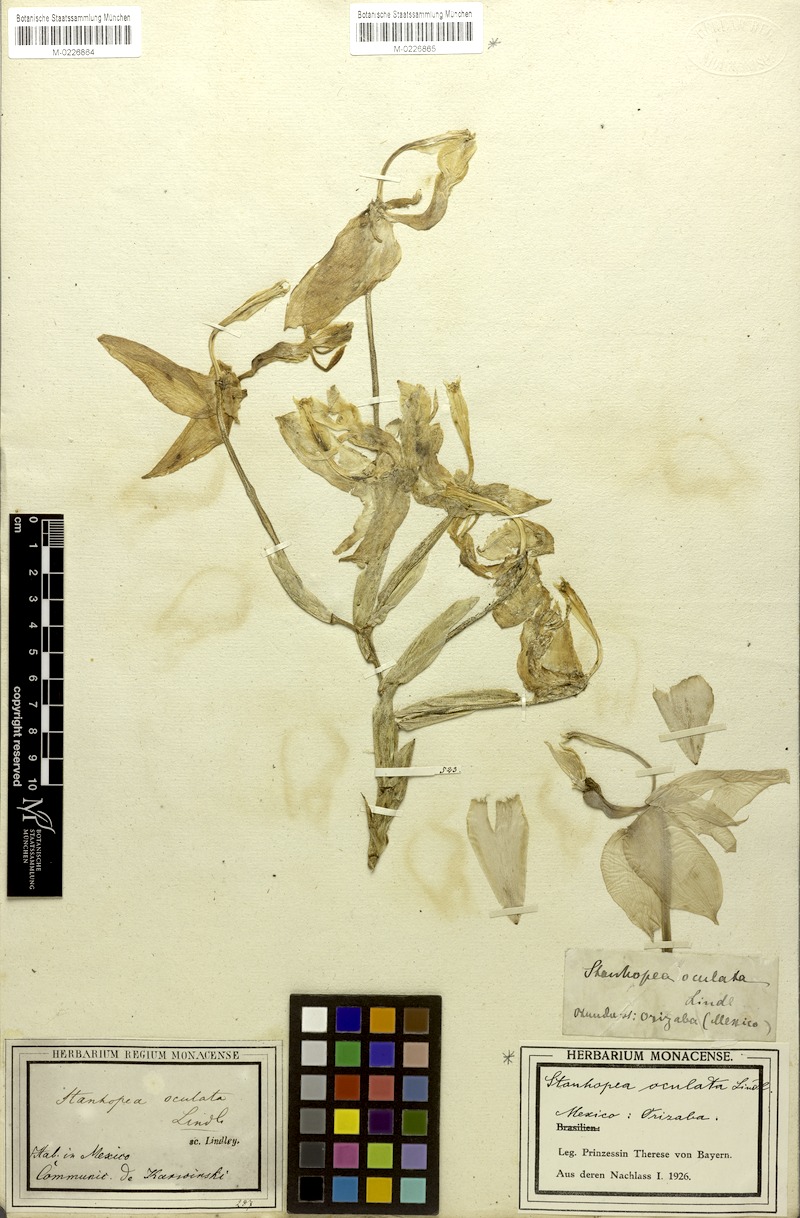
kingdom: Plantae
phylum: Tracheophyta
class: Liliopsida
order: Asparagales
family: Orchidaceae
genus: Stanhopea
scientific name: Stanhopea oculata
